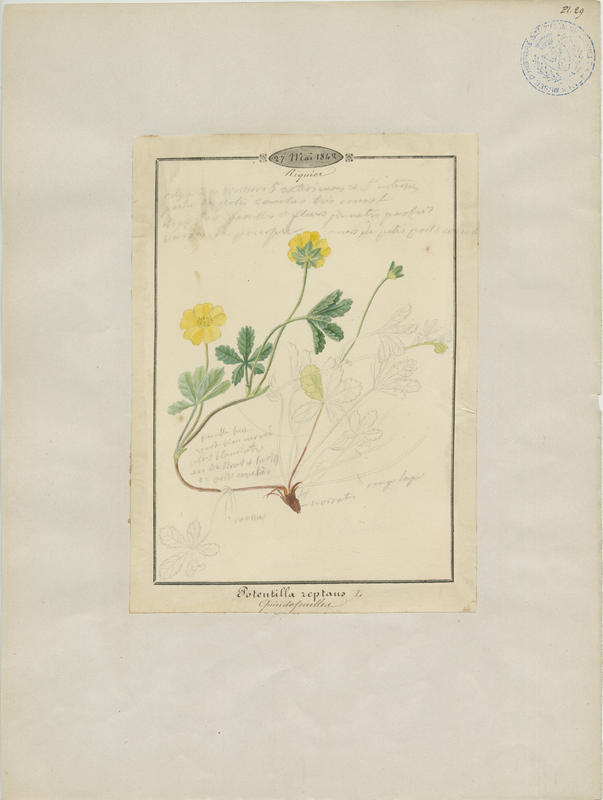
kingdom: Plantae
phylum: Tracheophyta
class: Magnoliopsida
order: Rosales
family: Rosaceae
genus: Potentilla
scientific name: Potentilla reptans
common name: Creeping cinquefoil
